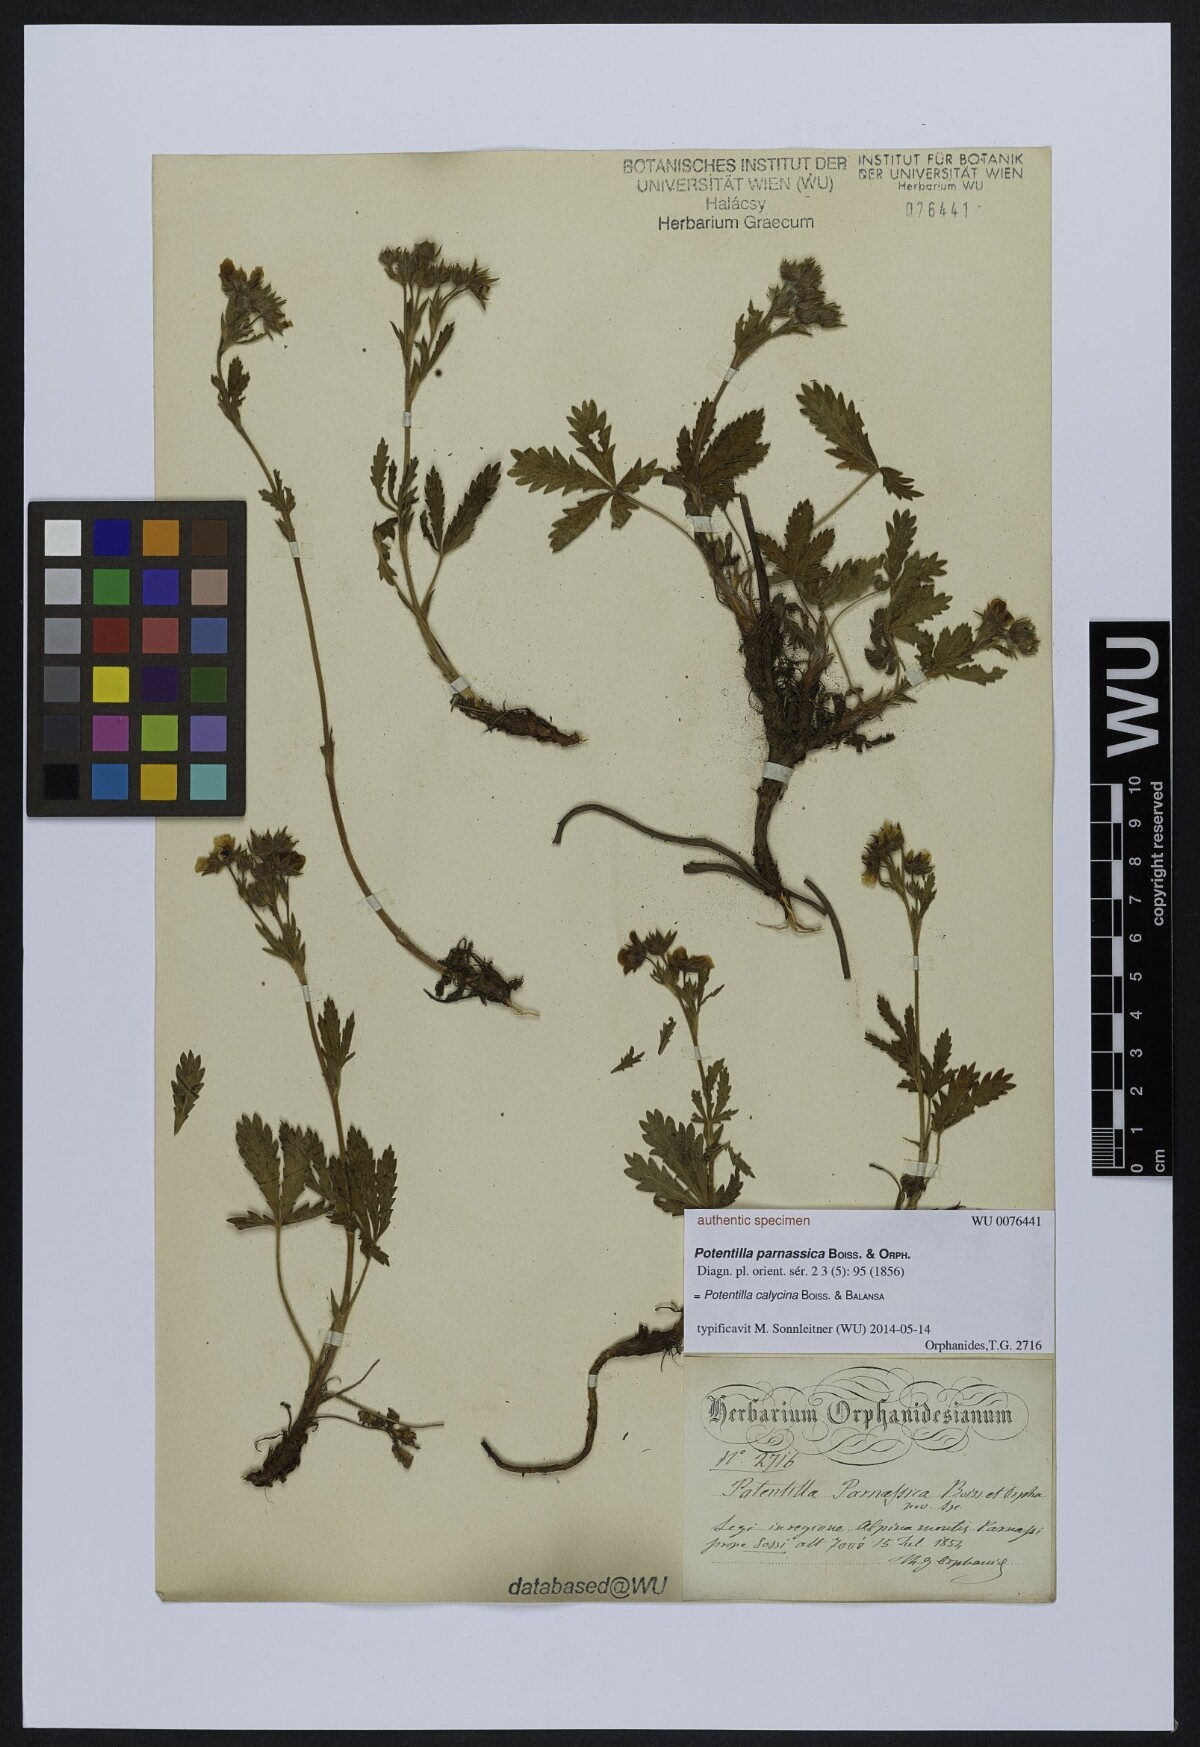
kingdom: Plantae
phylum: Tracheophyta
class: Magnoliopsida
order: Rosales
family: Rosaceae
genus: Potentilla
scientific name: Potentilla pedata
